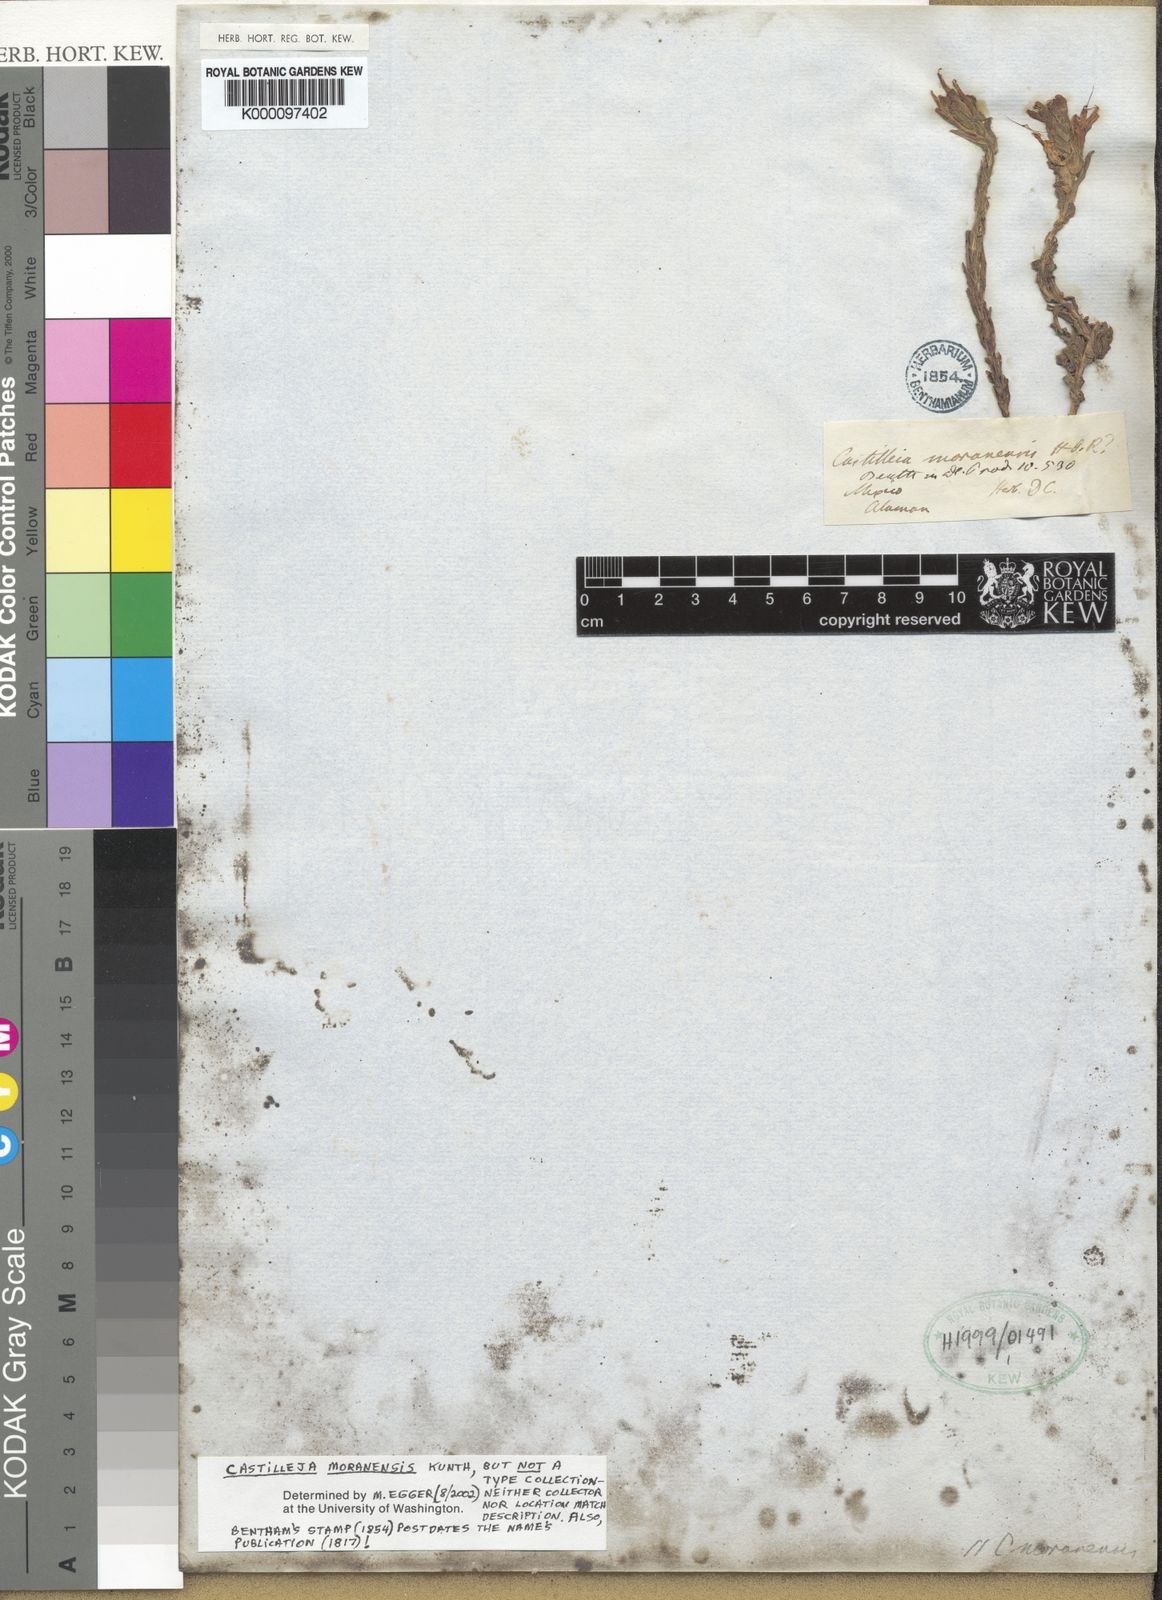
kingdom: Plantae
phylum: Tracheophyta
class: Magnoliopsida
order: Lamiales
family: Orobanchaceae
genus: Castilleja
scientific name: Castilleja moranensis
